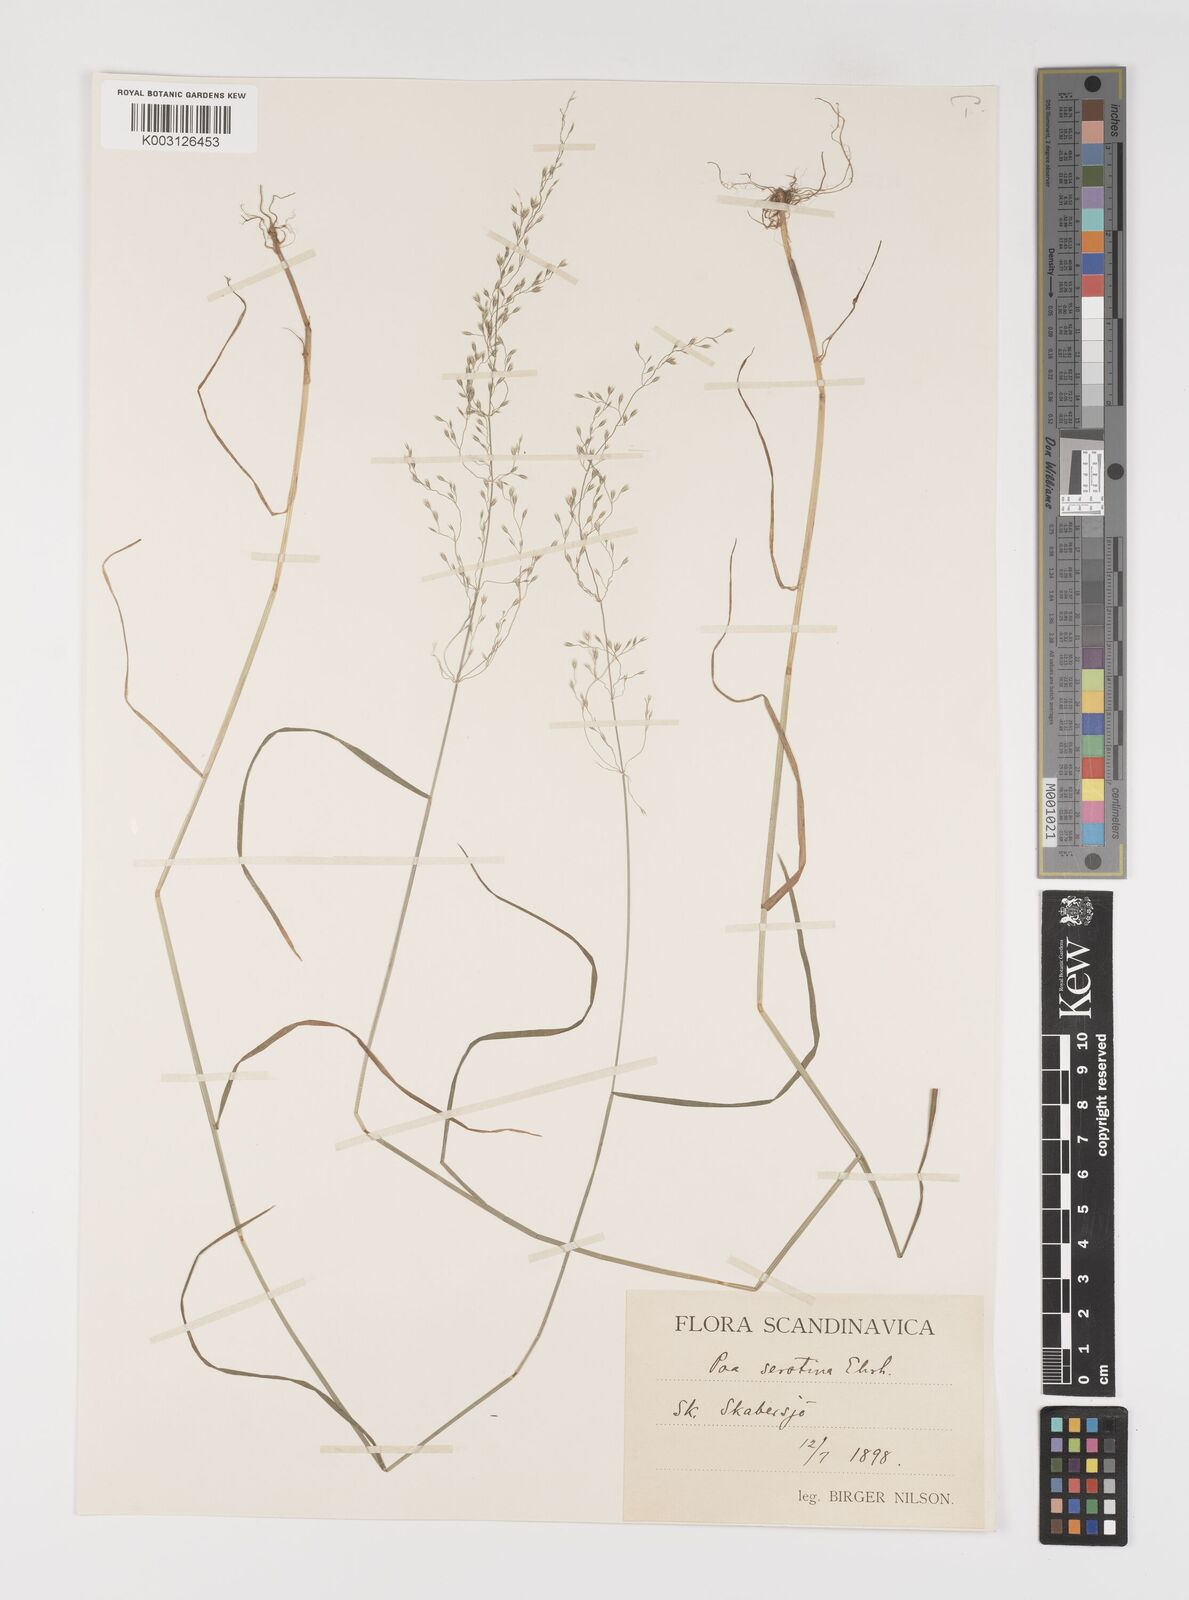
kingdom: Plantae
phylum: Tracheophyta
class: Liliopsida
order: Poales
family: Poaceae
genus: Poa
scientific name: Poa nemoralis
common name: Wood bluegrass
